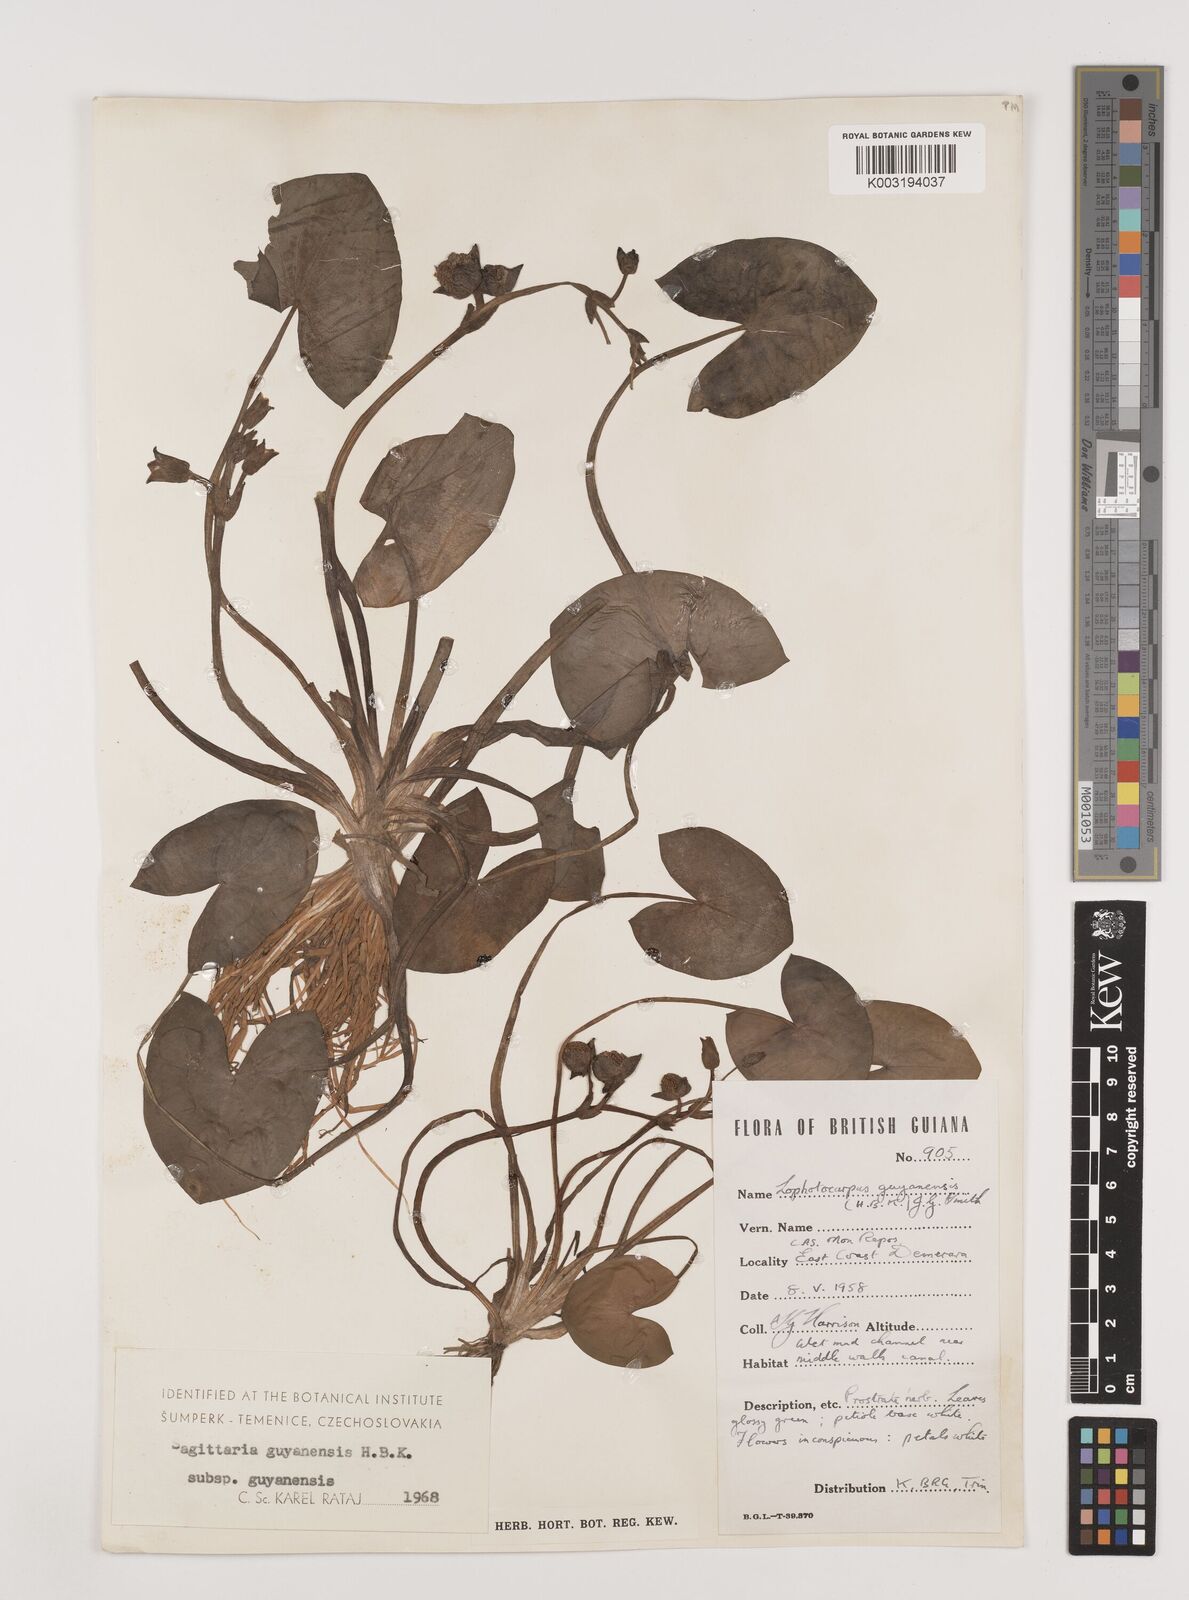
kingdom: Plantae
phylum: Tracheophyta
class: Liliopsida
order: Alismatales
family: Alismataceae
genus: Sagittaria
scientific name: Sagittaria guayanensis
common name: Guyanese arrowhead
